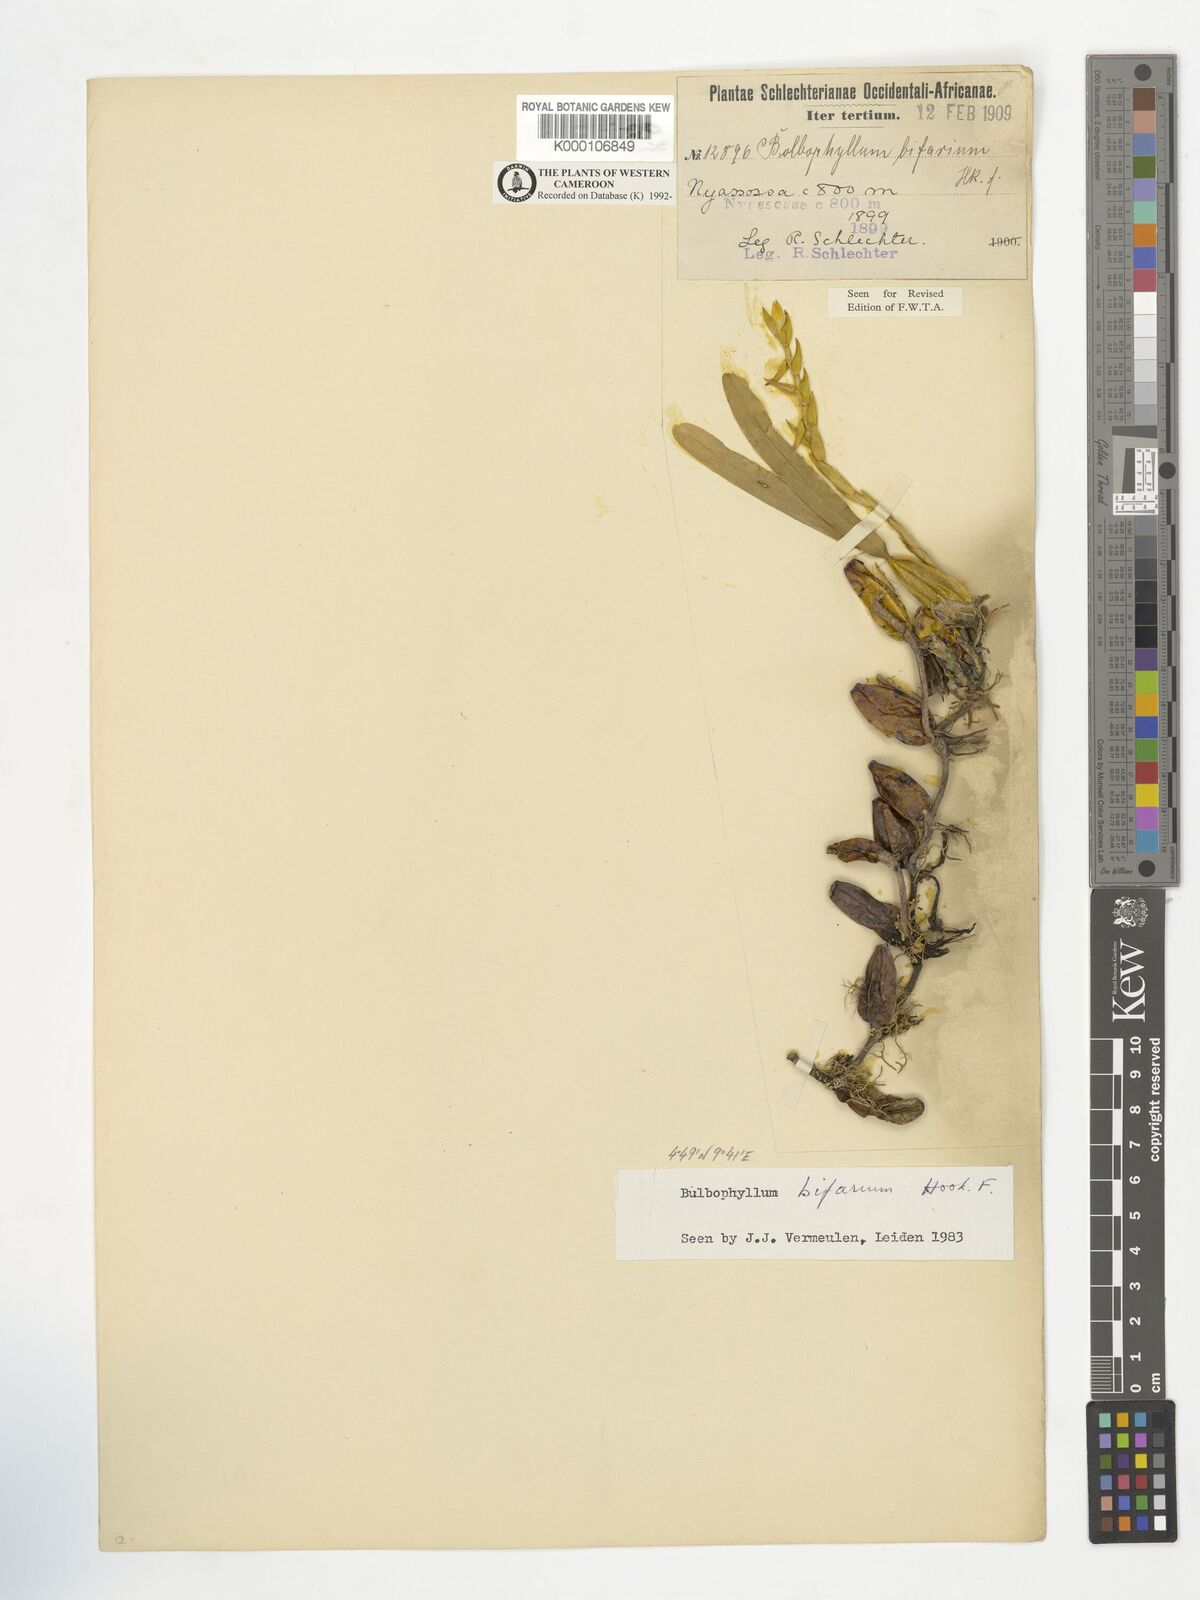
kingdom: Plantae
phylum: Tracheophyta
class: Liliopsida
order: Asparagales
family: Orchidaceae
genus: Bulbophyllum
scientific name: Bulbophyllum bifarium
